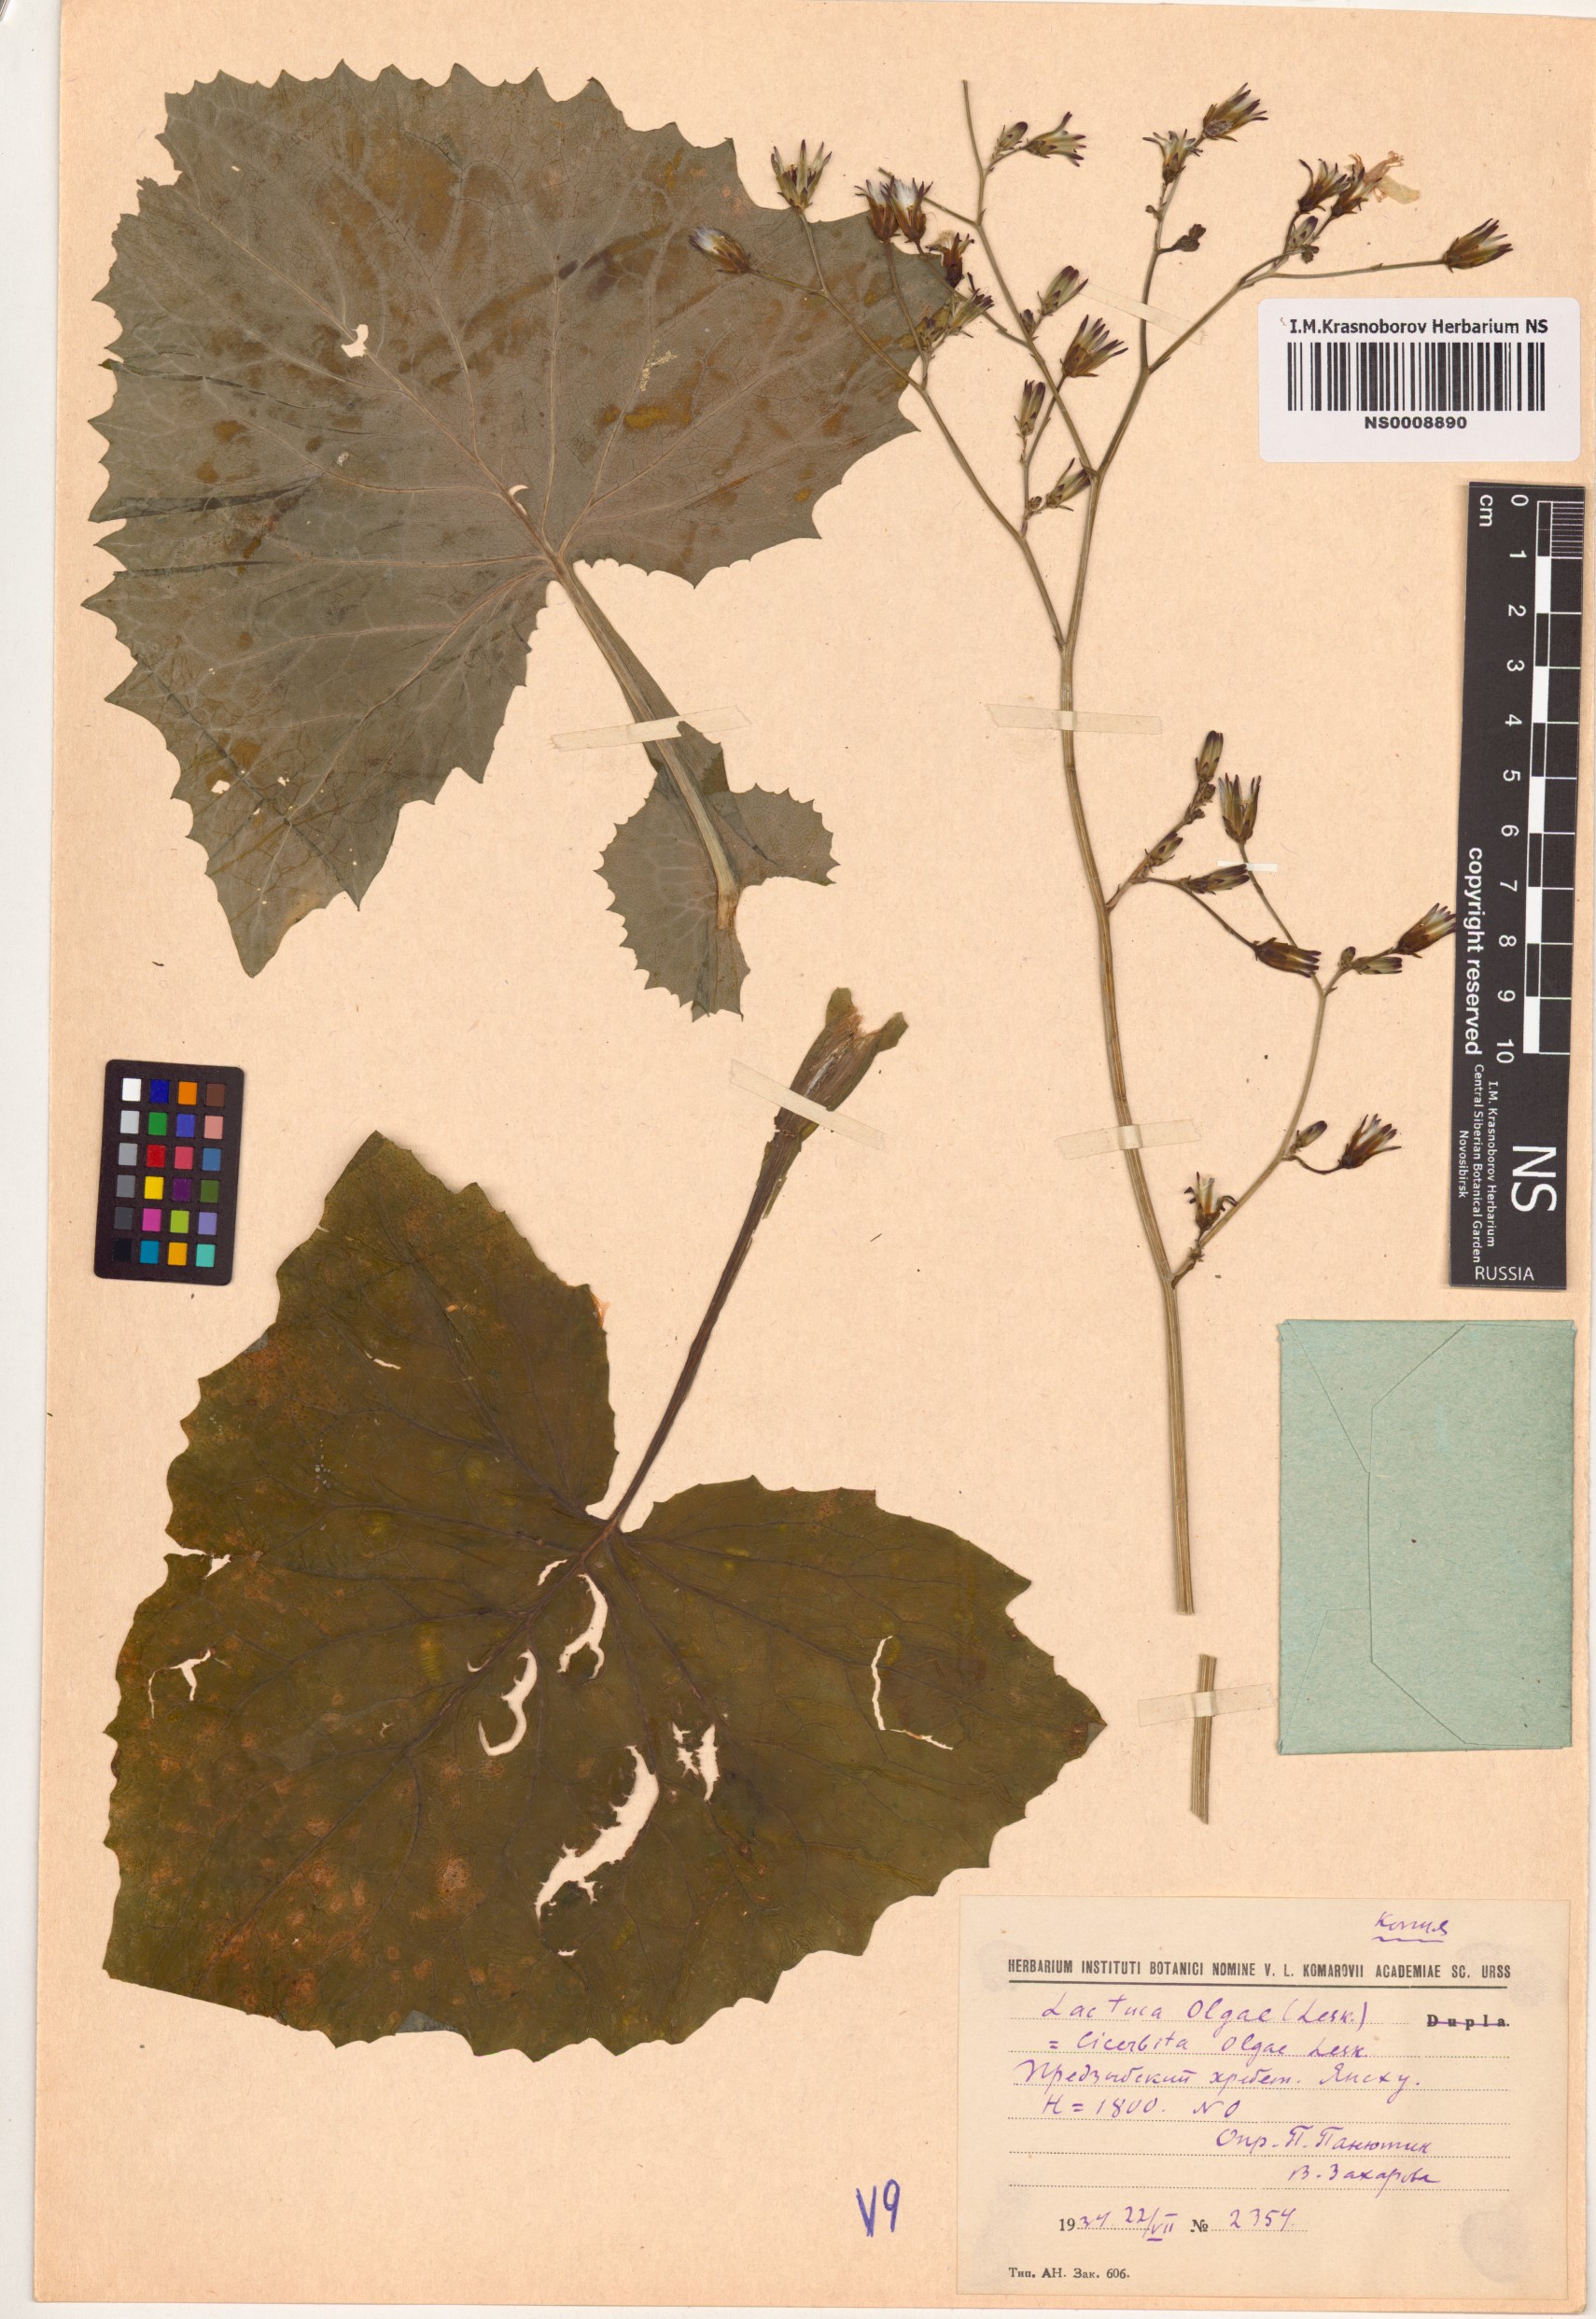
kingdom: Plantae
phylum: Tracheophyta
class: Magnoliopsida
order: Asterales
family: Asteraceae
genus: Lactuca
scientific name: Lactuca olgae
